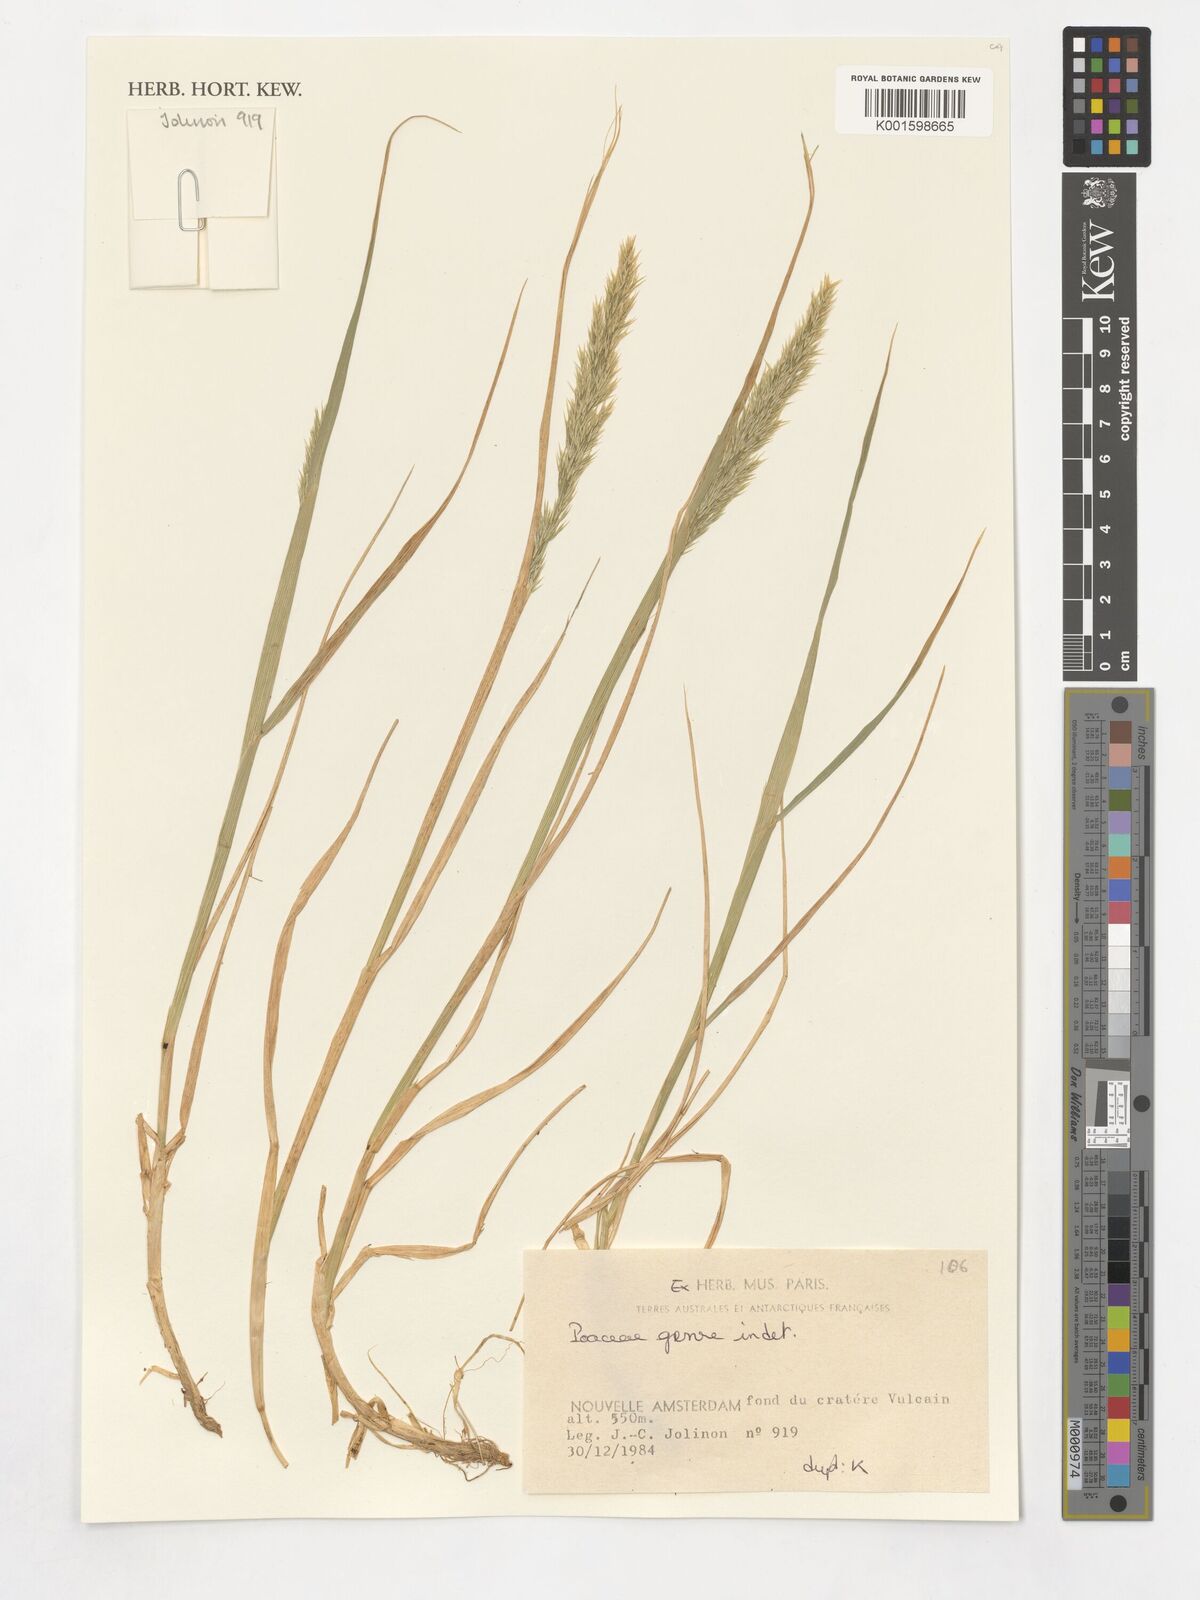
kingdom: Plantae
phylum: Tracheophyta
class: Liliopsida
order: Poales
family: Poaceae
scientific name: Poaceae
